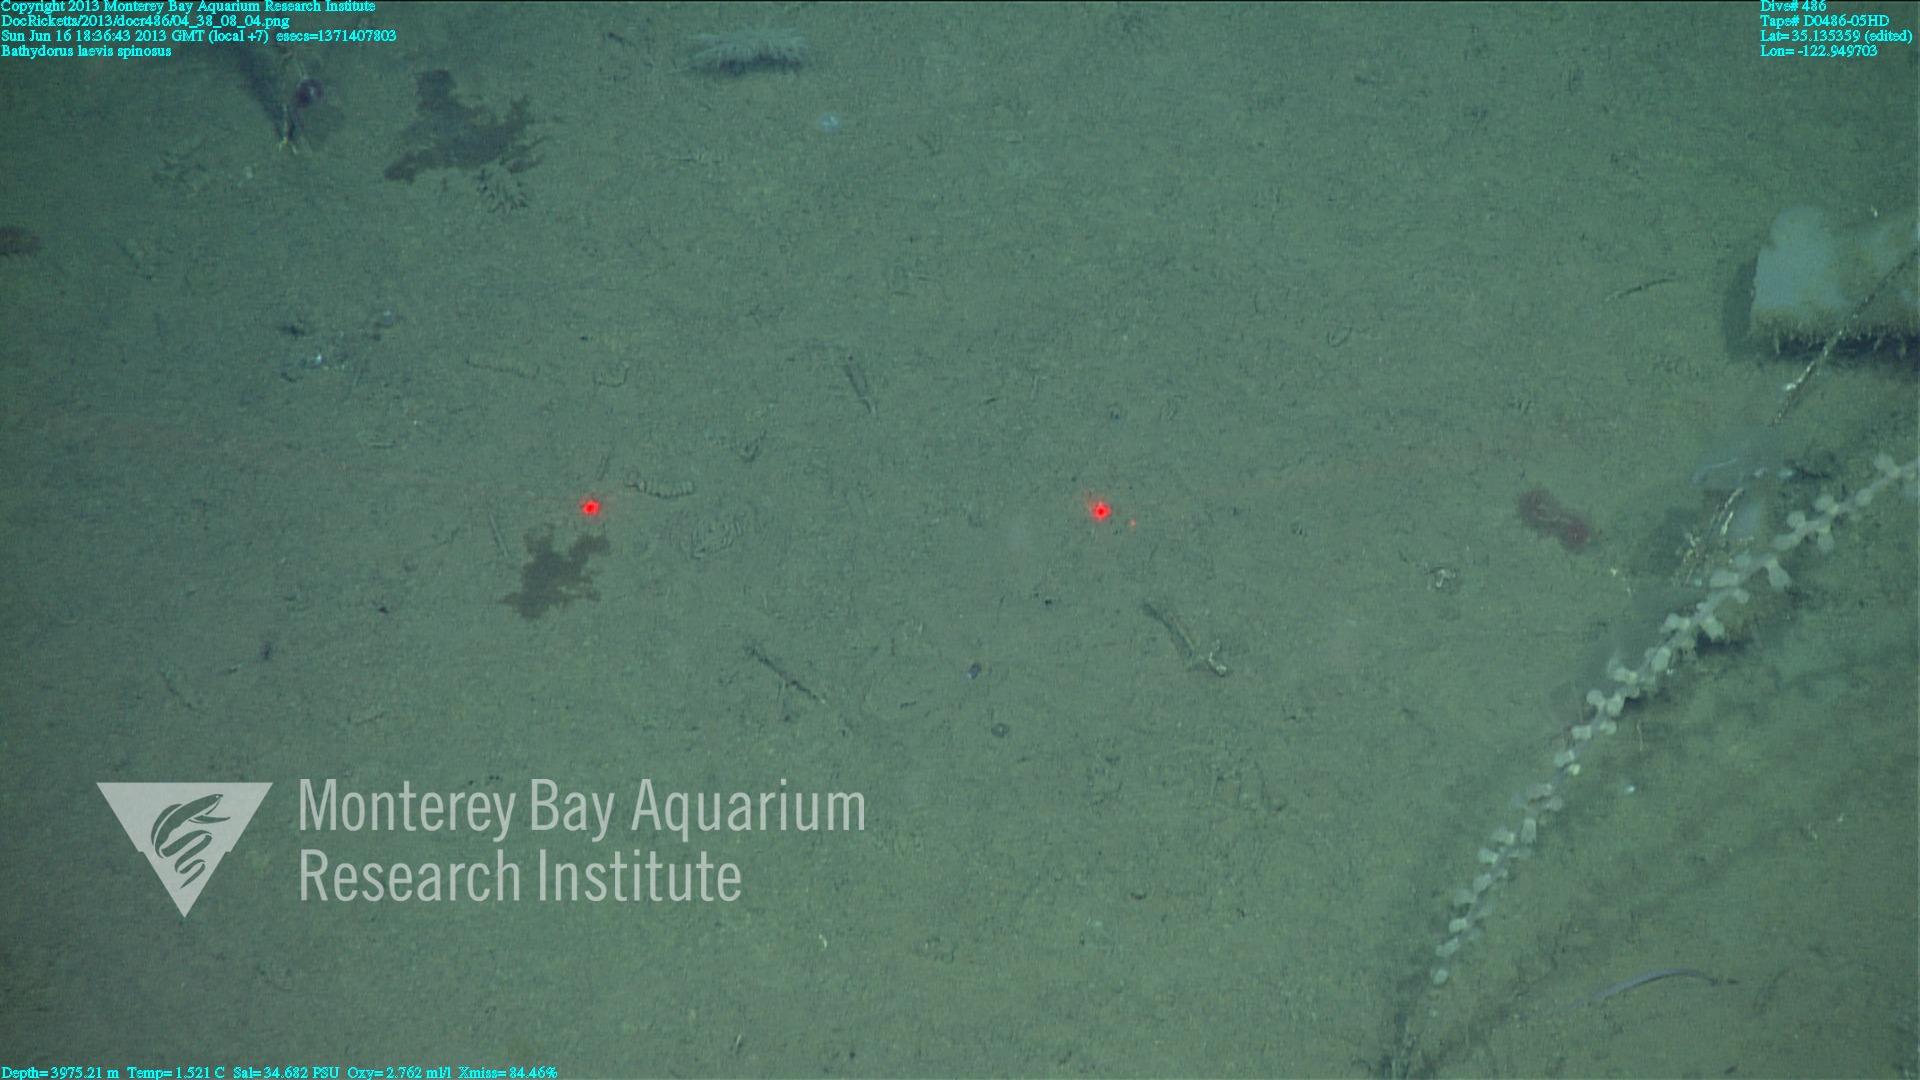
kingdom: Animalia
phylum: Porifera
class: Hexactinellida
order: Lyssacinosida
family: Rossellidae
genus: Bathydorus
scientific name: Bathydorus spinosus
